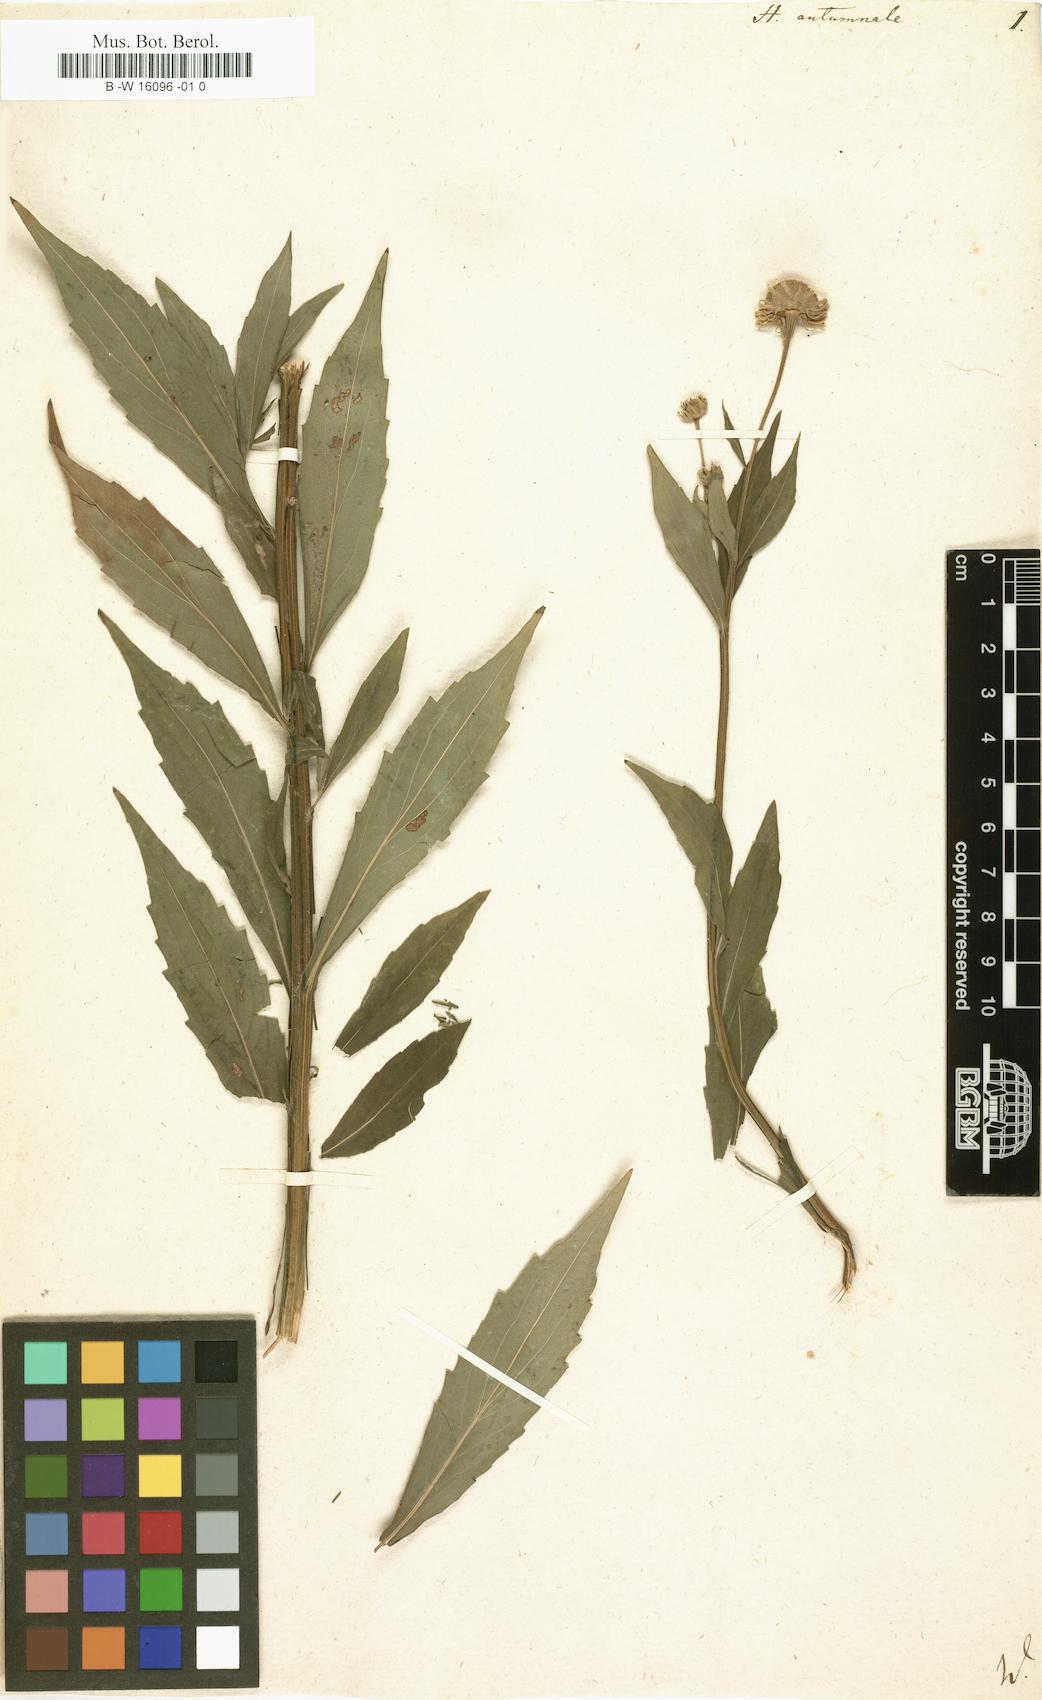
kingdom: Plantae
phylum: Tracheophyta
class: Magnoliopsida
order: Asterales
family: Asteraceae
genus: Helenium
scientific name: Helenium autumnale
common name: Sneezeweed
